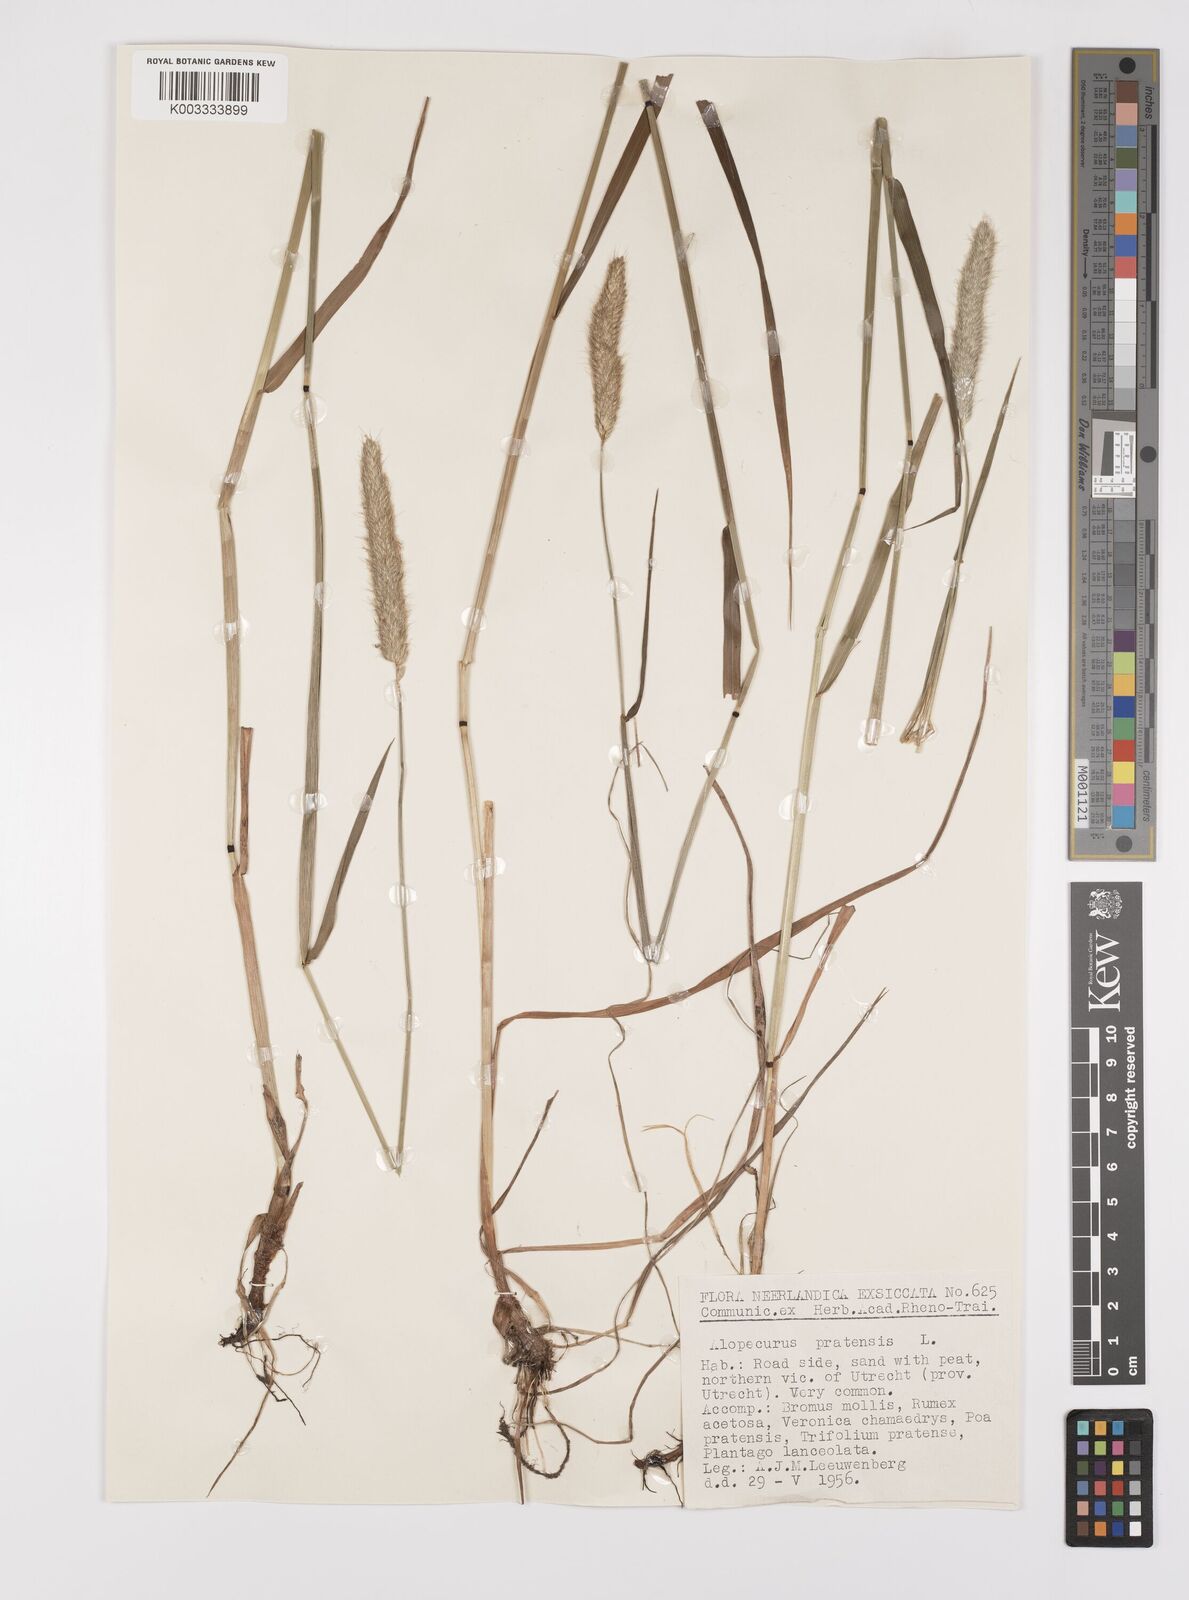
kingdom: Plantae
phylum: Tracheophyta
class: Liliopsida
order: Poales
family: Poaceae
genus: Alopecurus
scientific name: Alopecurus pratensis
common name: Meadow foxtail
